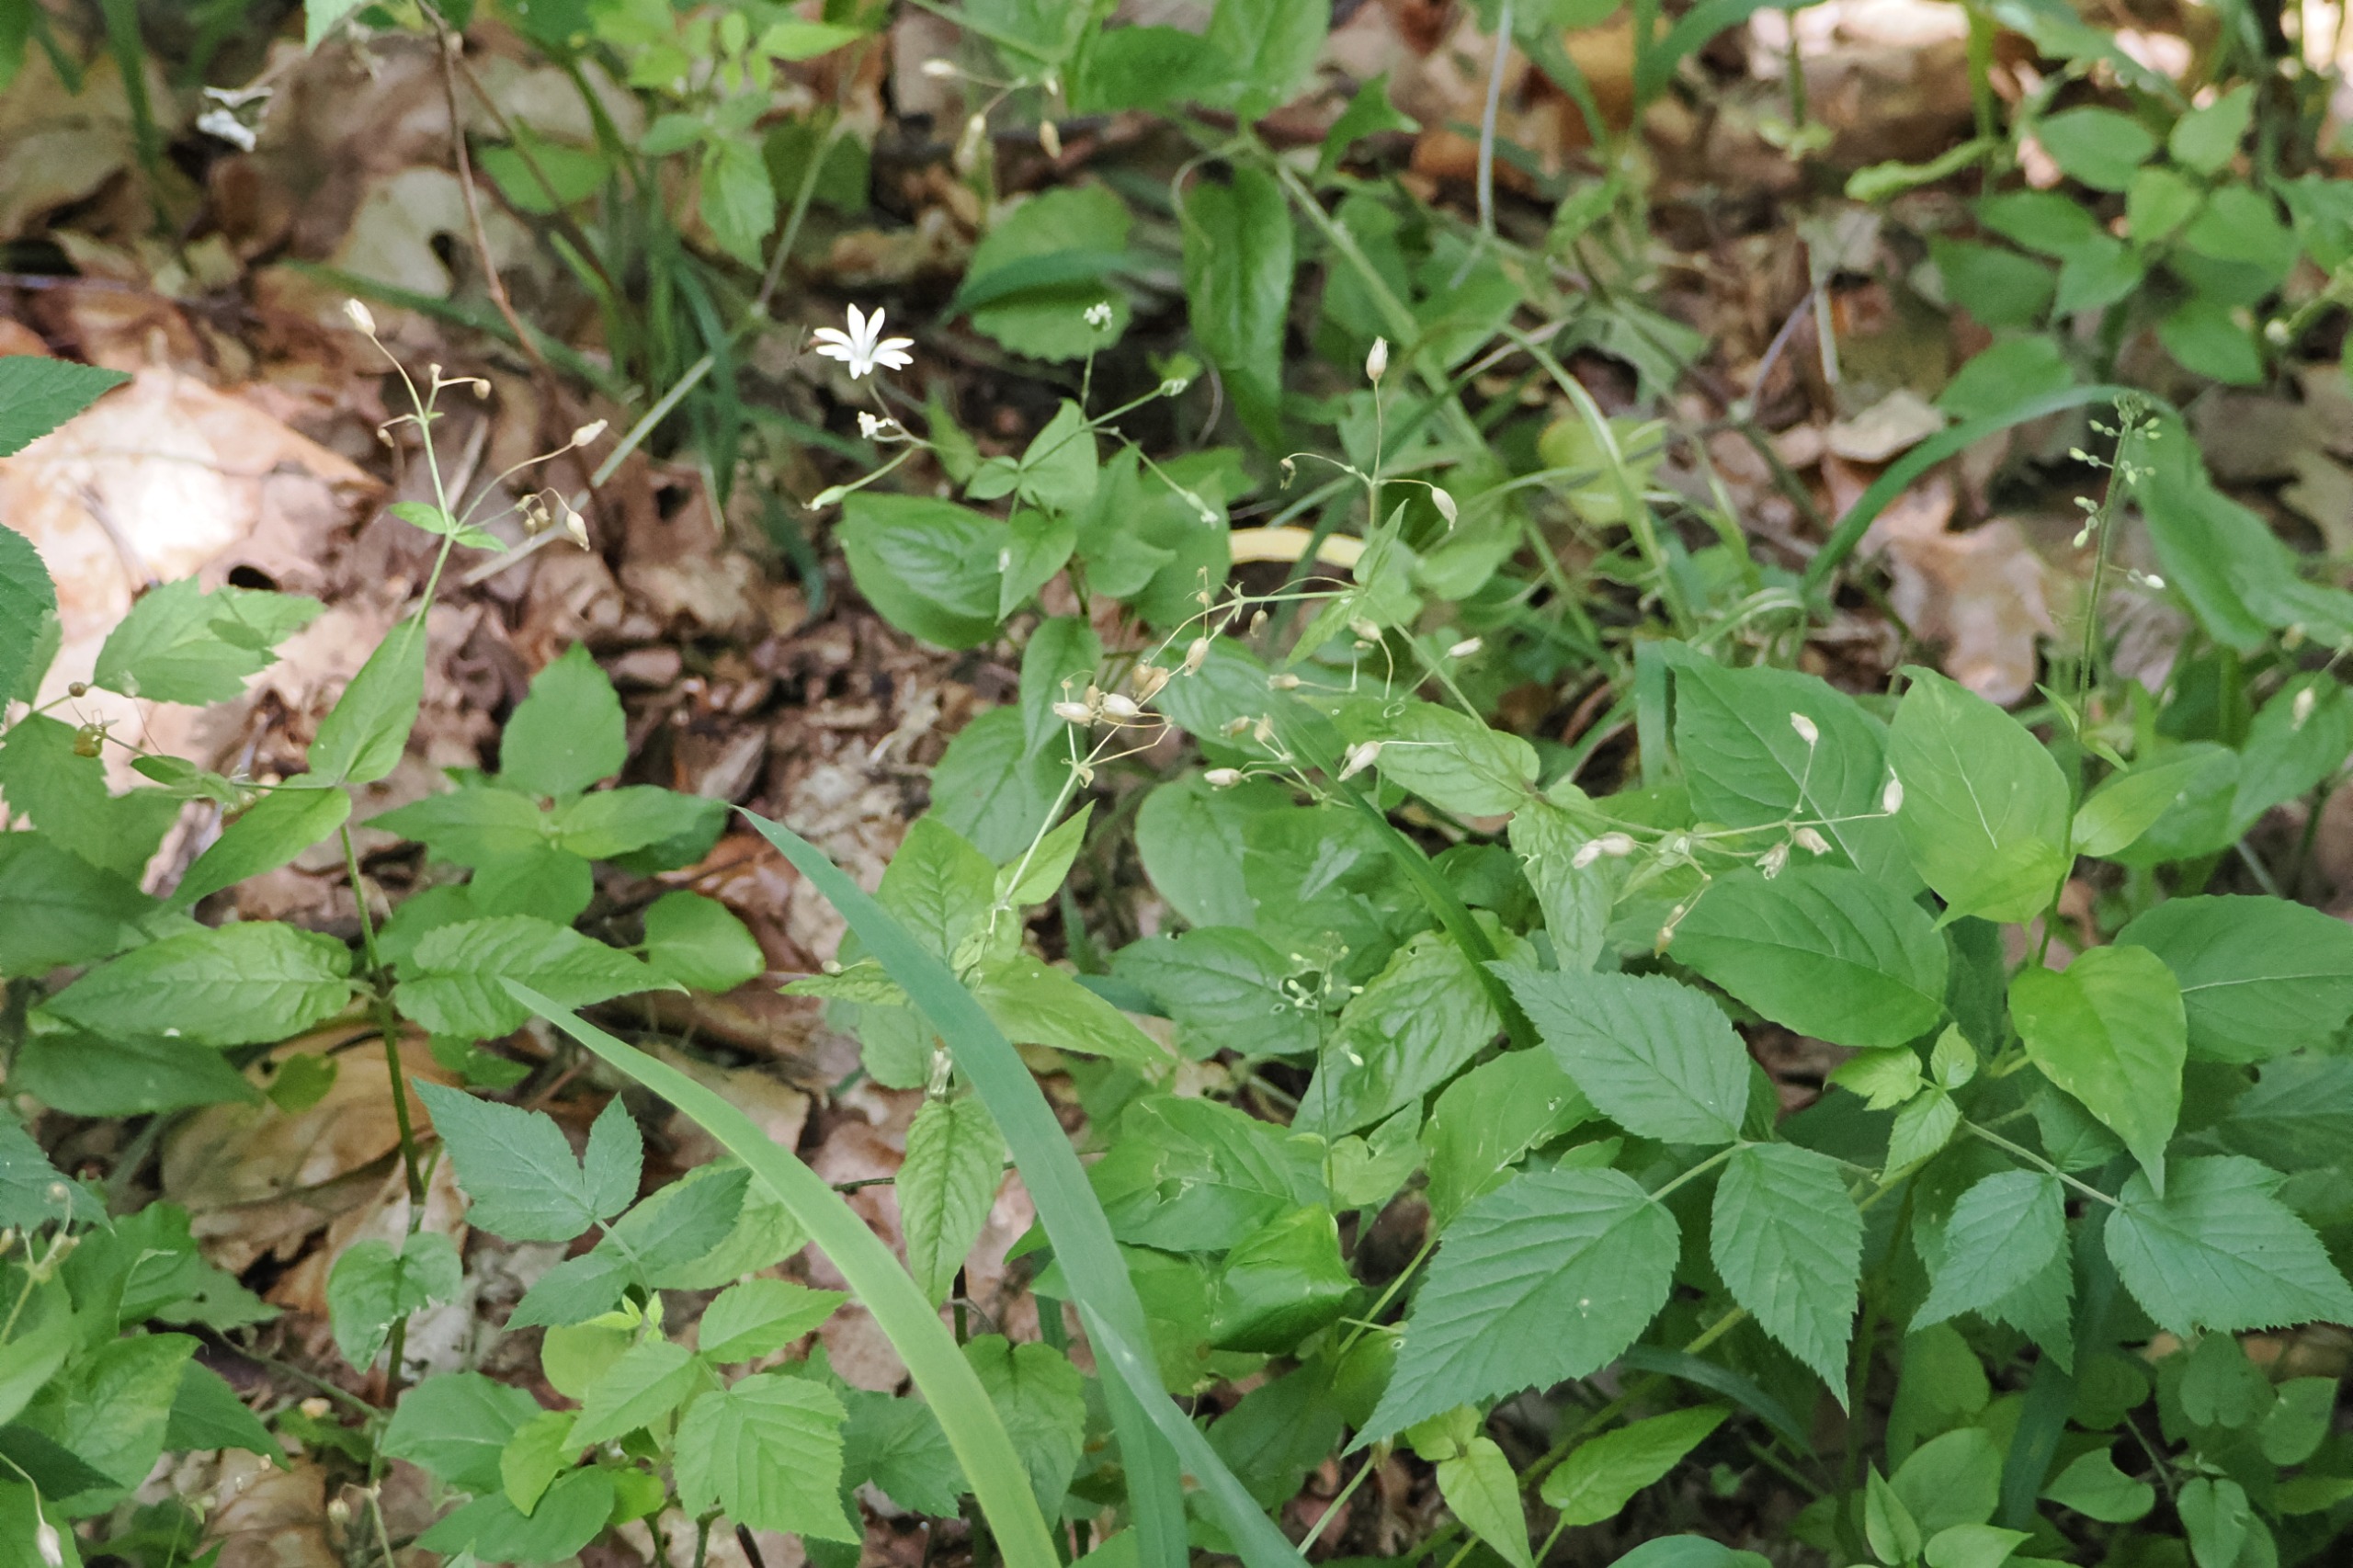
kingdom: Plantae
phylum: Tracheophyta
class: Magnoliopsida
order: Caryophyllales
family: Caryophyllaceae
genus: Stellaria
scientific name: Stellaria nemorum
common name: Lund-fladstjerne
